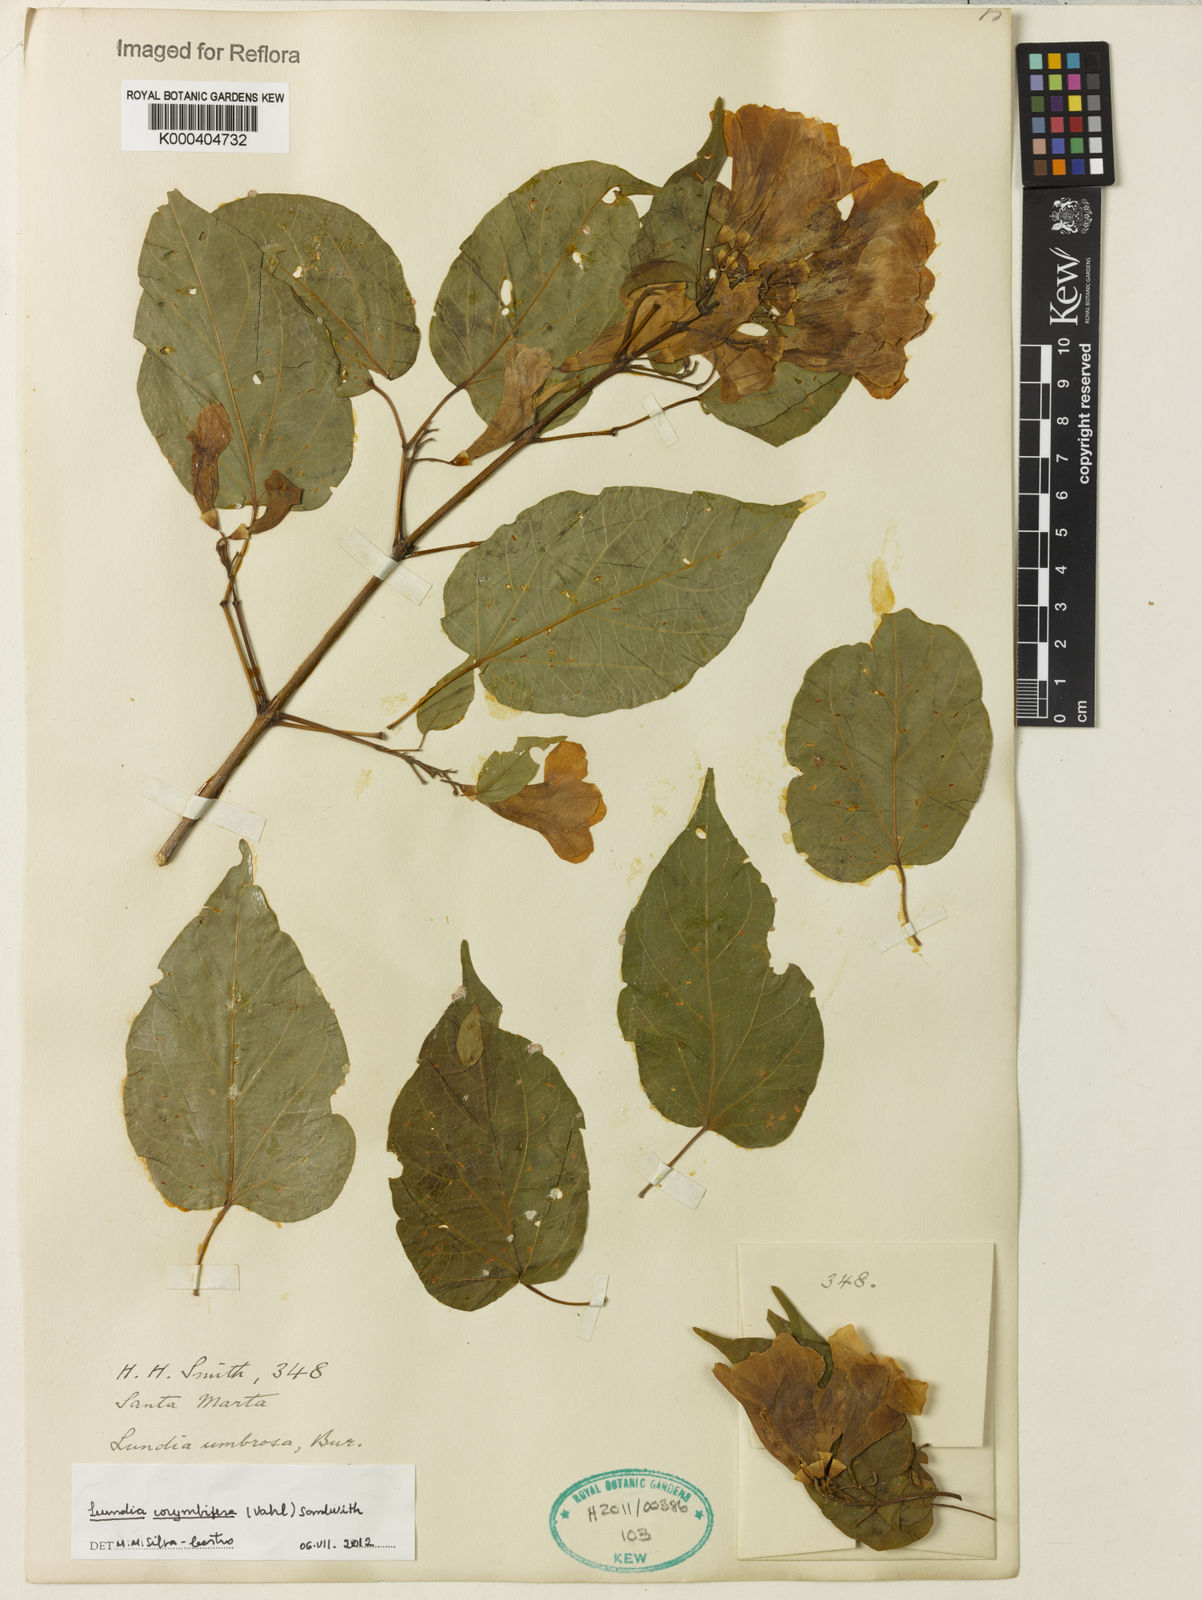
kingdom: Plantae
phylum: Tracheophyta
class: Magnoliopsida
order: Lamiales
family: Bignoniaceae
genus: Lundia
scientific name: Lundia corymbifera
